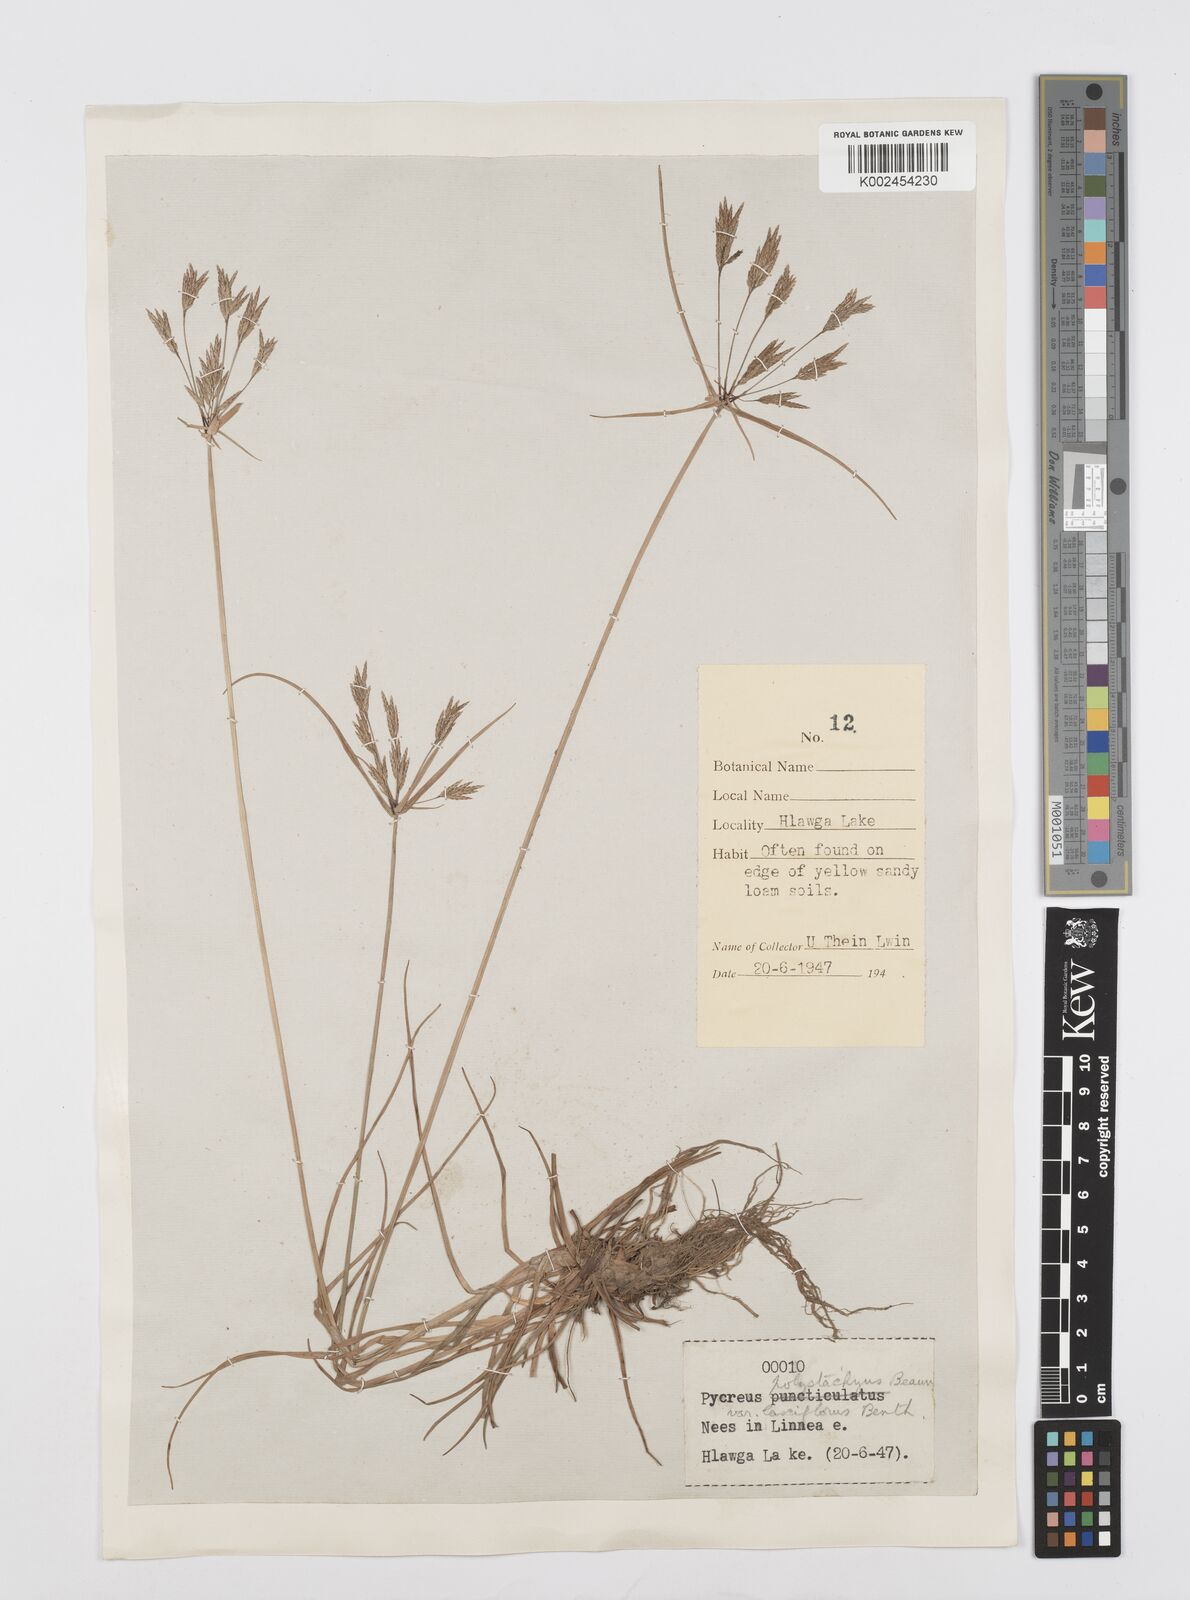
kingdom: Plantae
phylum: Tracheophyta
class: Liliopsida
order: Poales
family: Cyperaceae
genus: Cyperus
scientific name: Cyperus polystachyos
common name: Bunchy flat sedge
